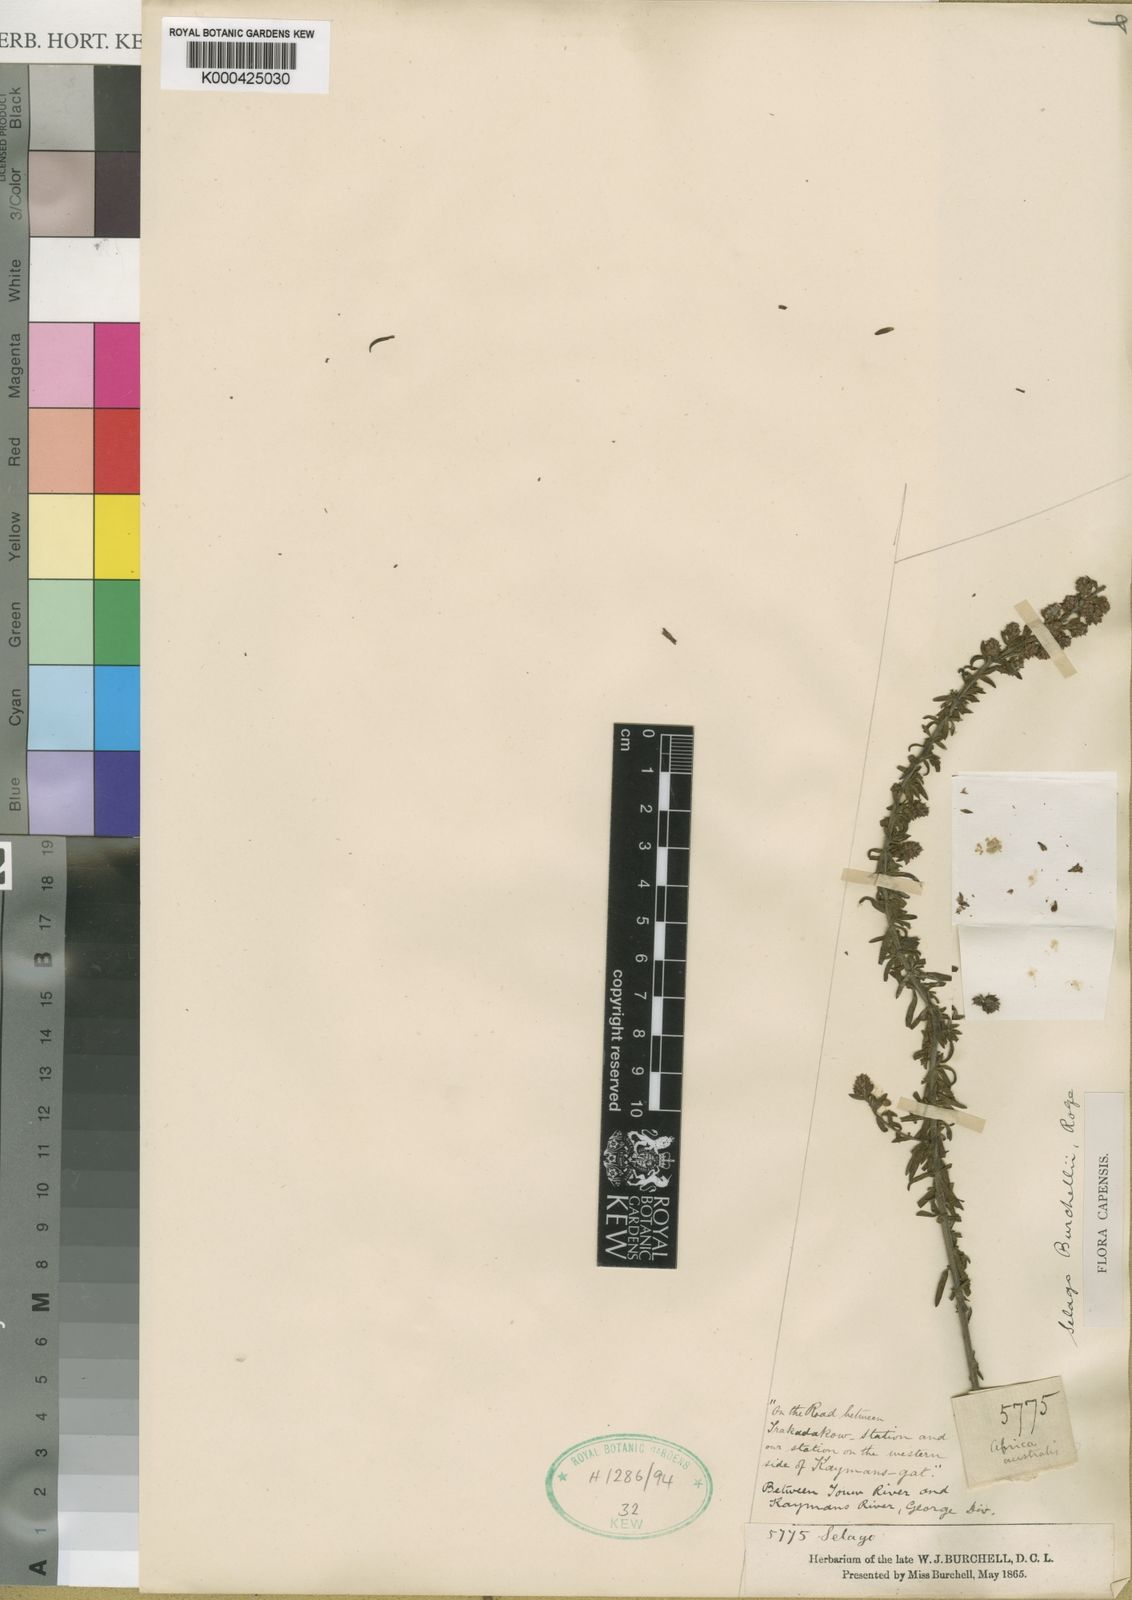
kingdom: Plantae
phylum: Tracheophyta
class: Magnoliopsida
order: Lamiales
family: Scrophulariaceae
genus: Selago
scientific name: Selago burchellii
